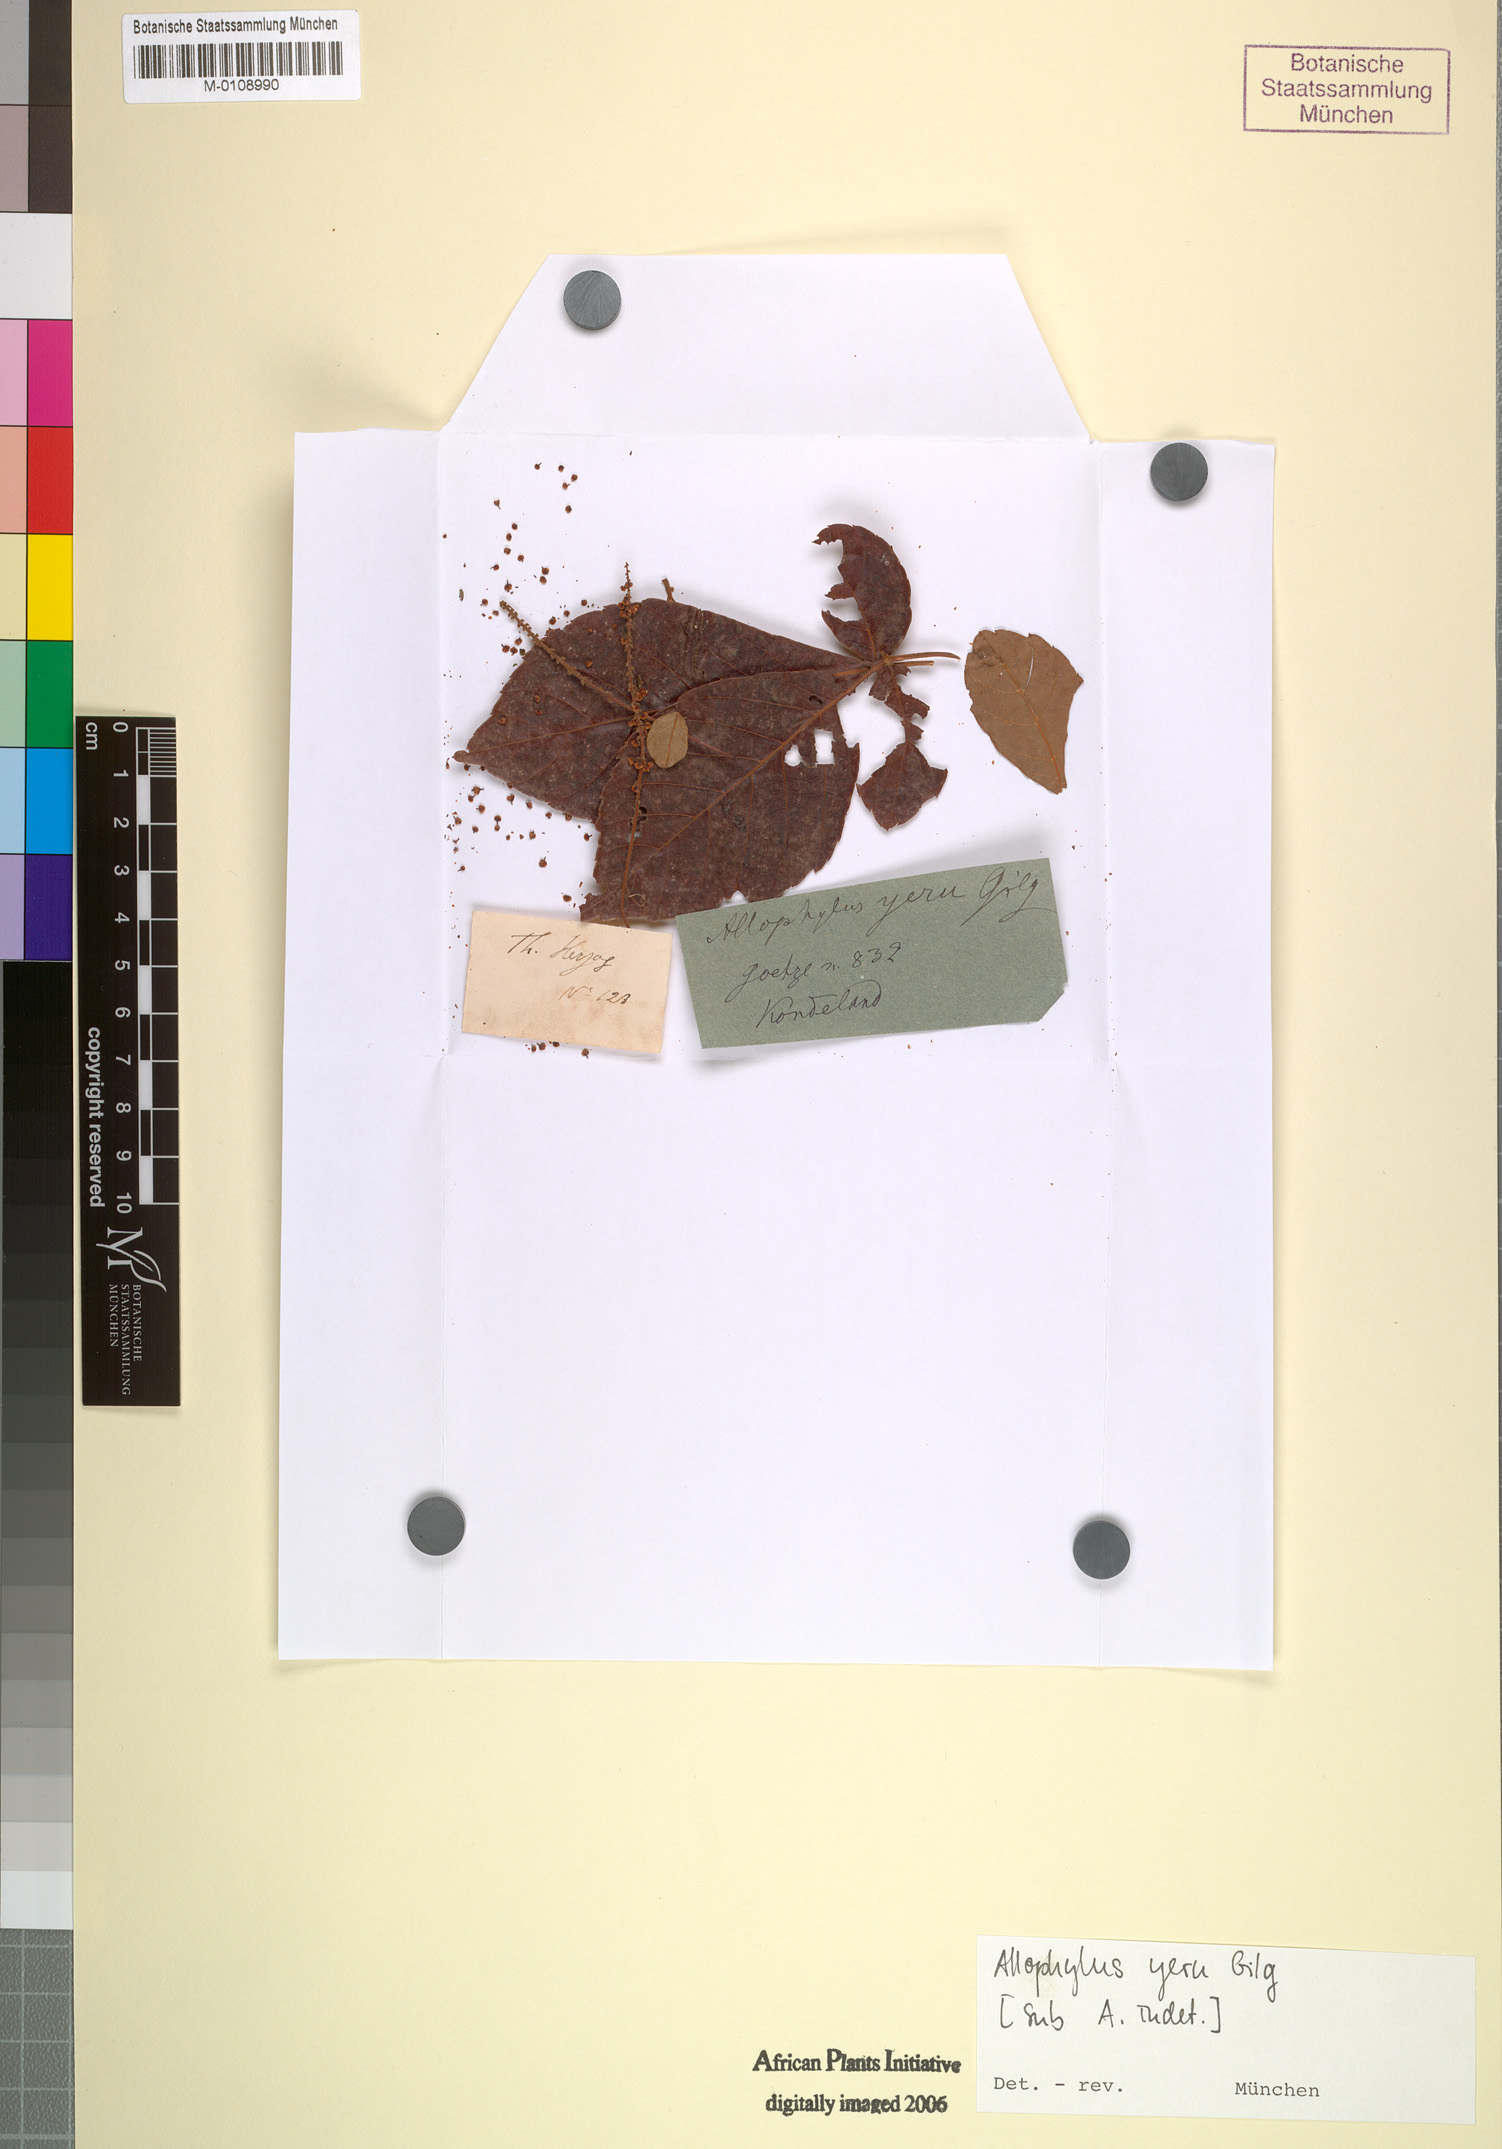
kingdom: Plantae
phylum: Tracheophyta
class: Magnoliopsida
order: Sapindales
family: Sapindaceae
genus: Allophylus
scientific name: Allophylus chaunostachys
